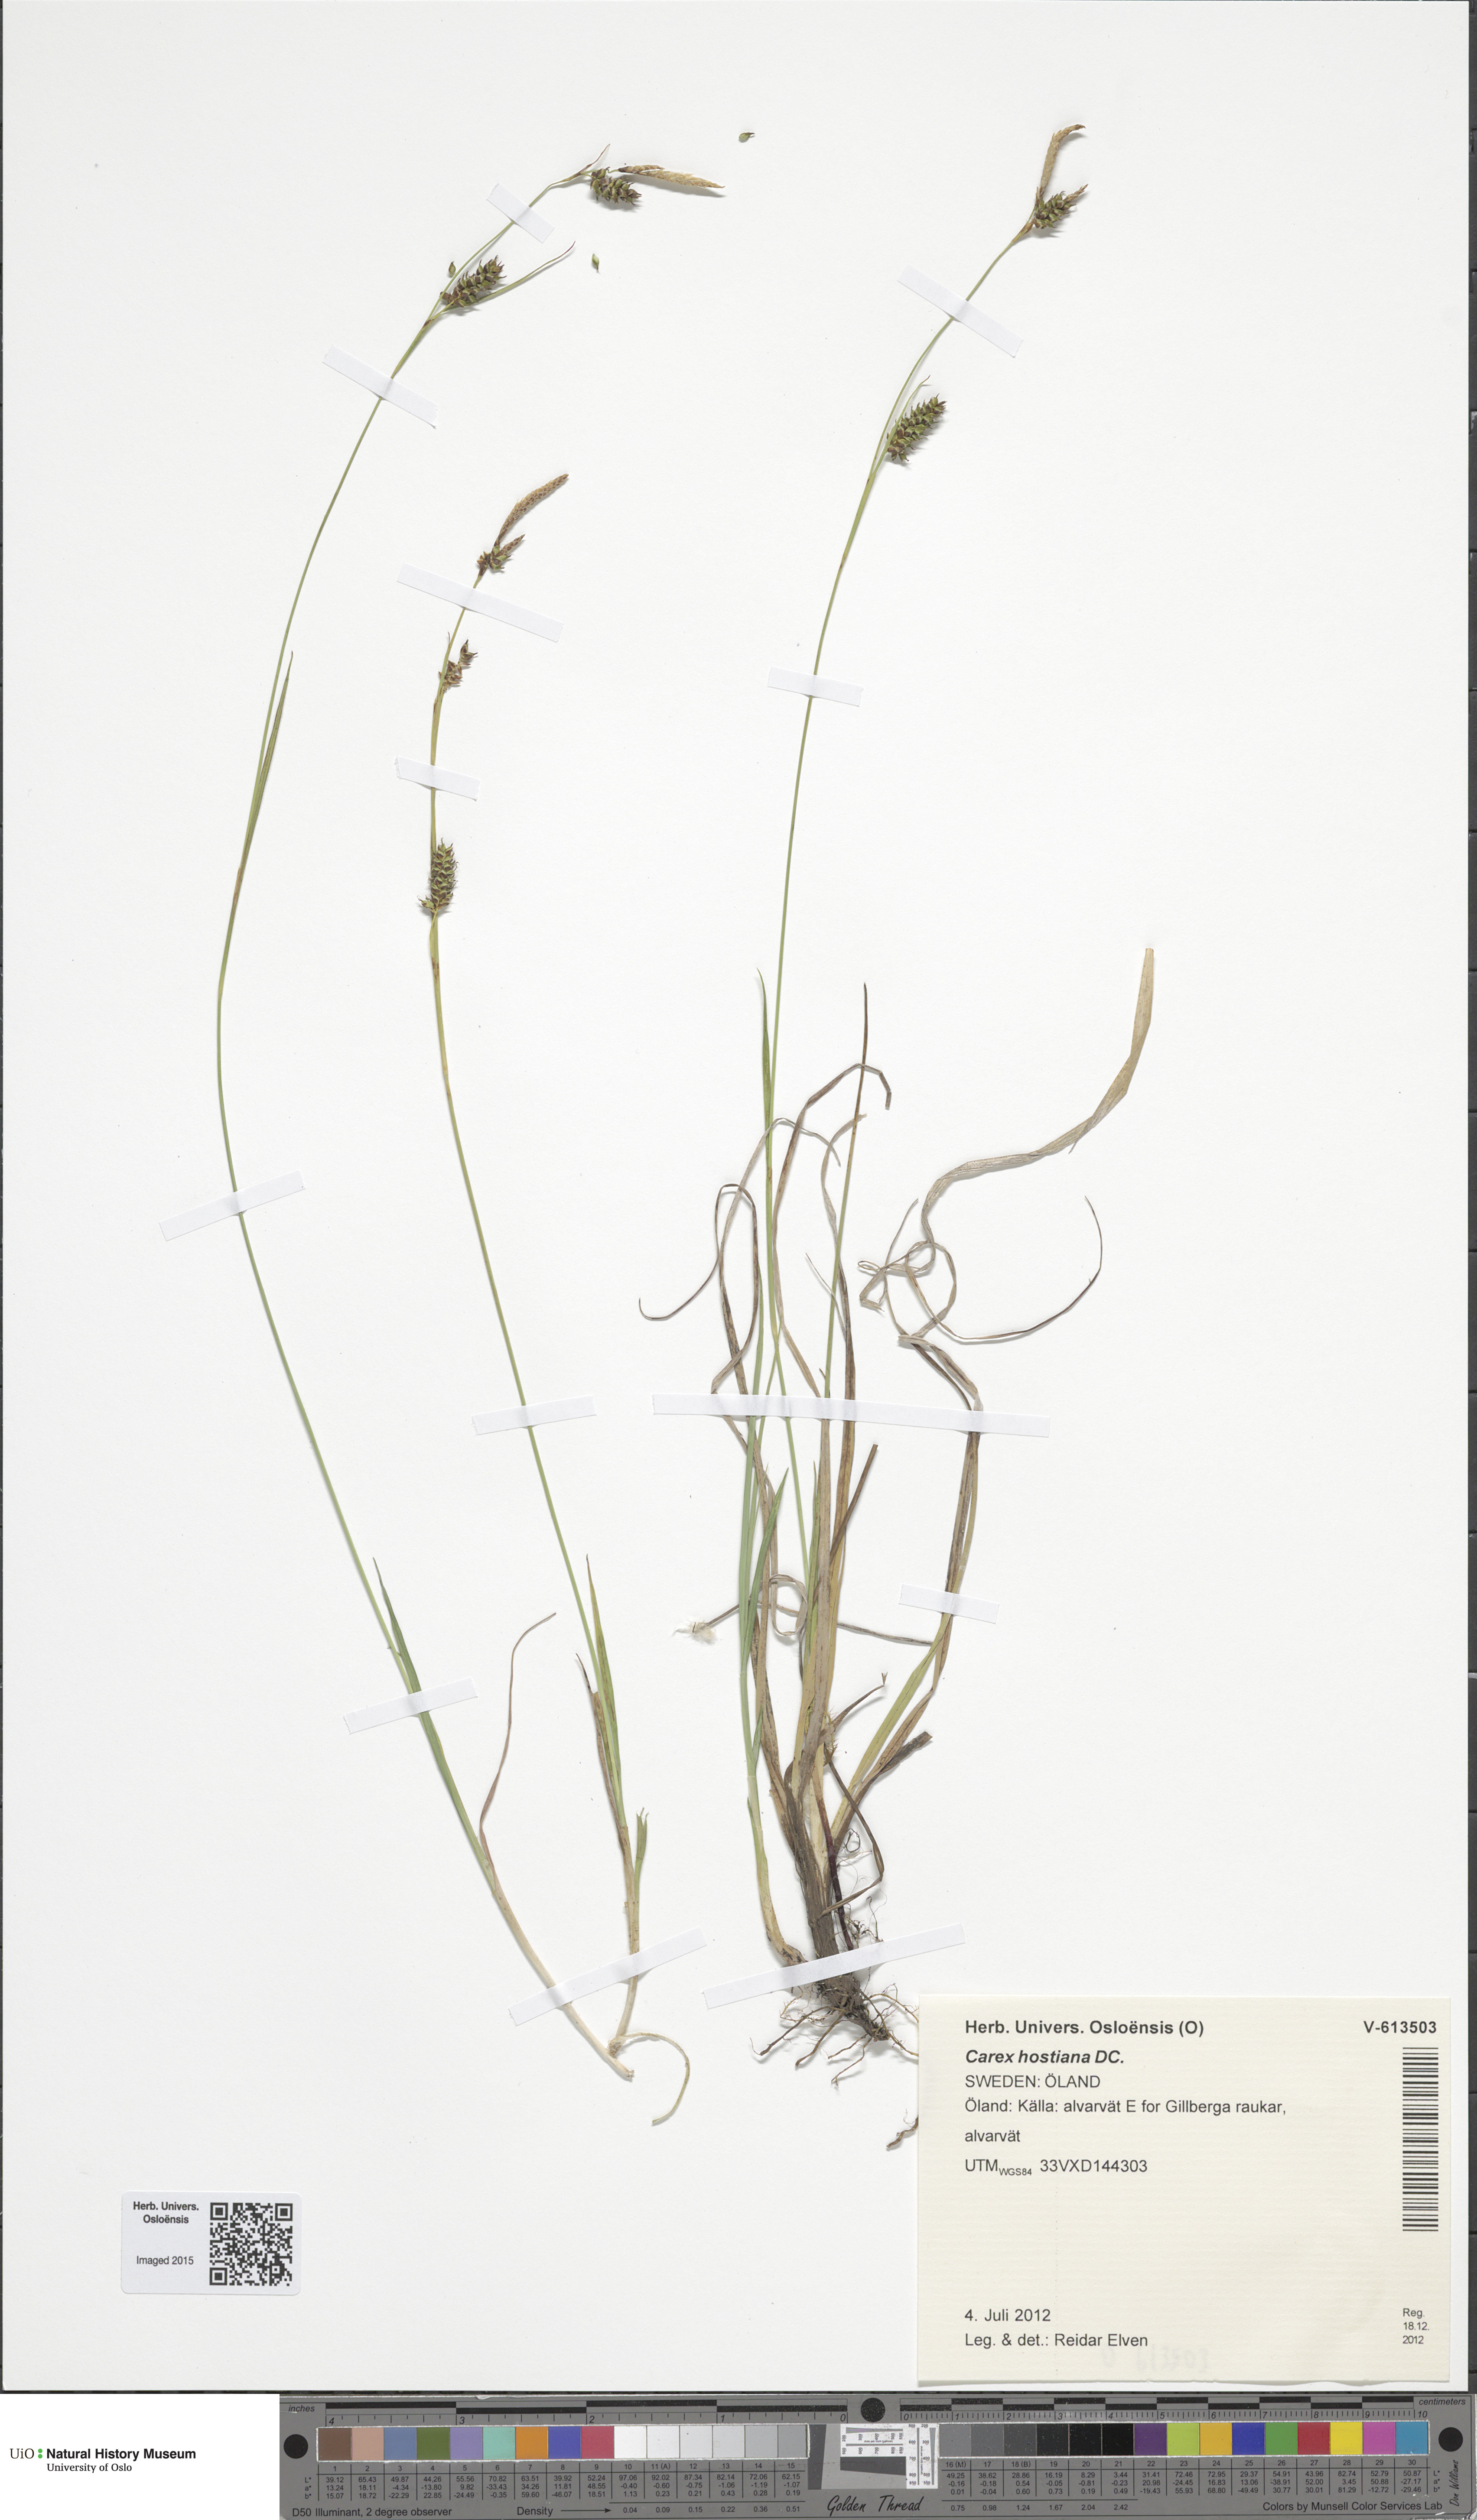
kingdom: Plantae
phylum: Tracheophyta
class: Liliopsida
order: Poales
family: Cyperaceae
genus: Carex
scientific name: Carex hostiana
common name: Tawny sedge
